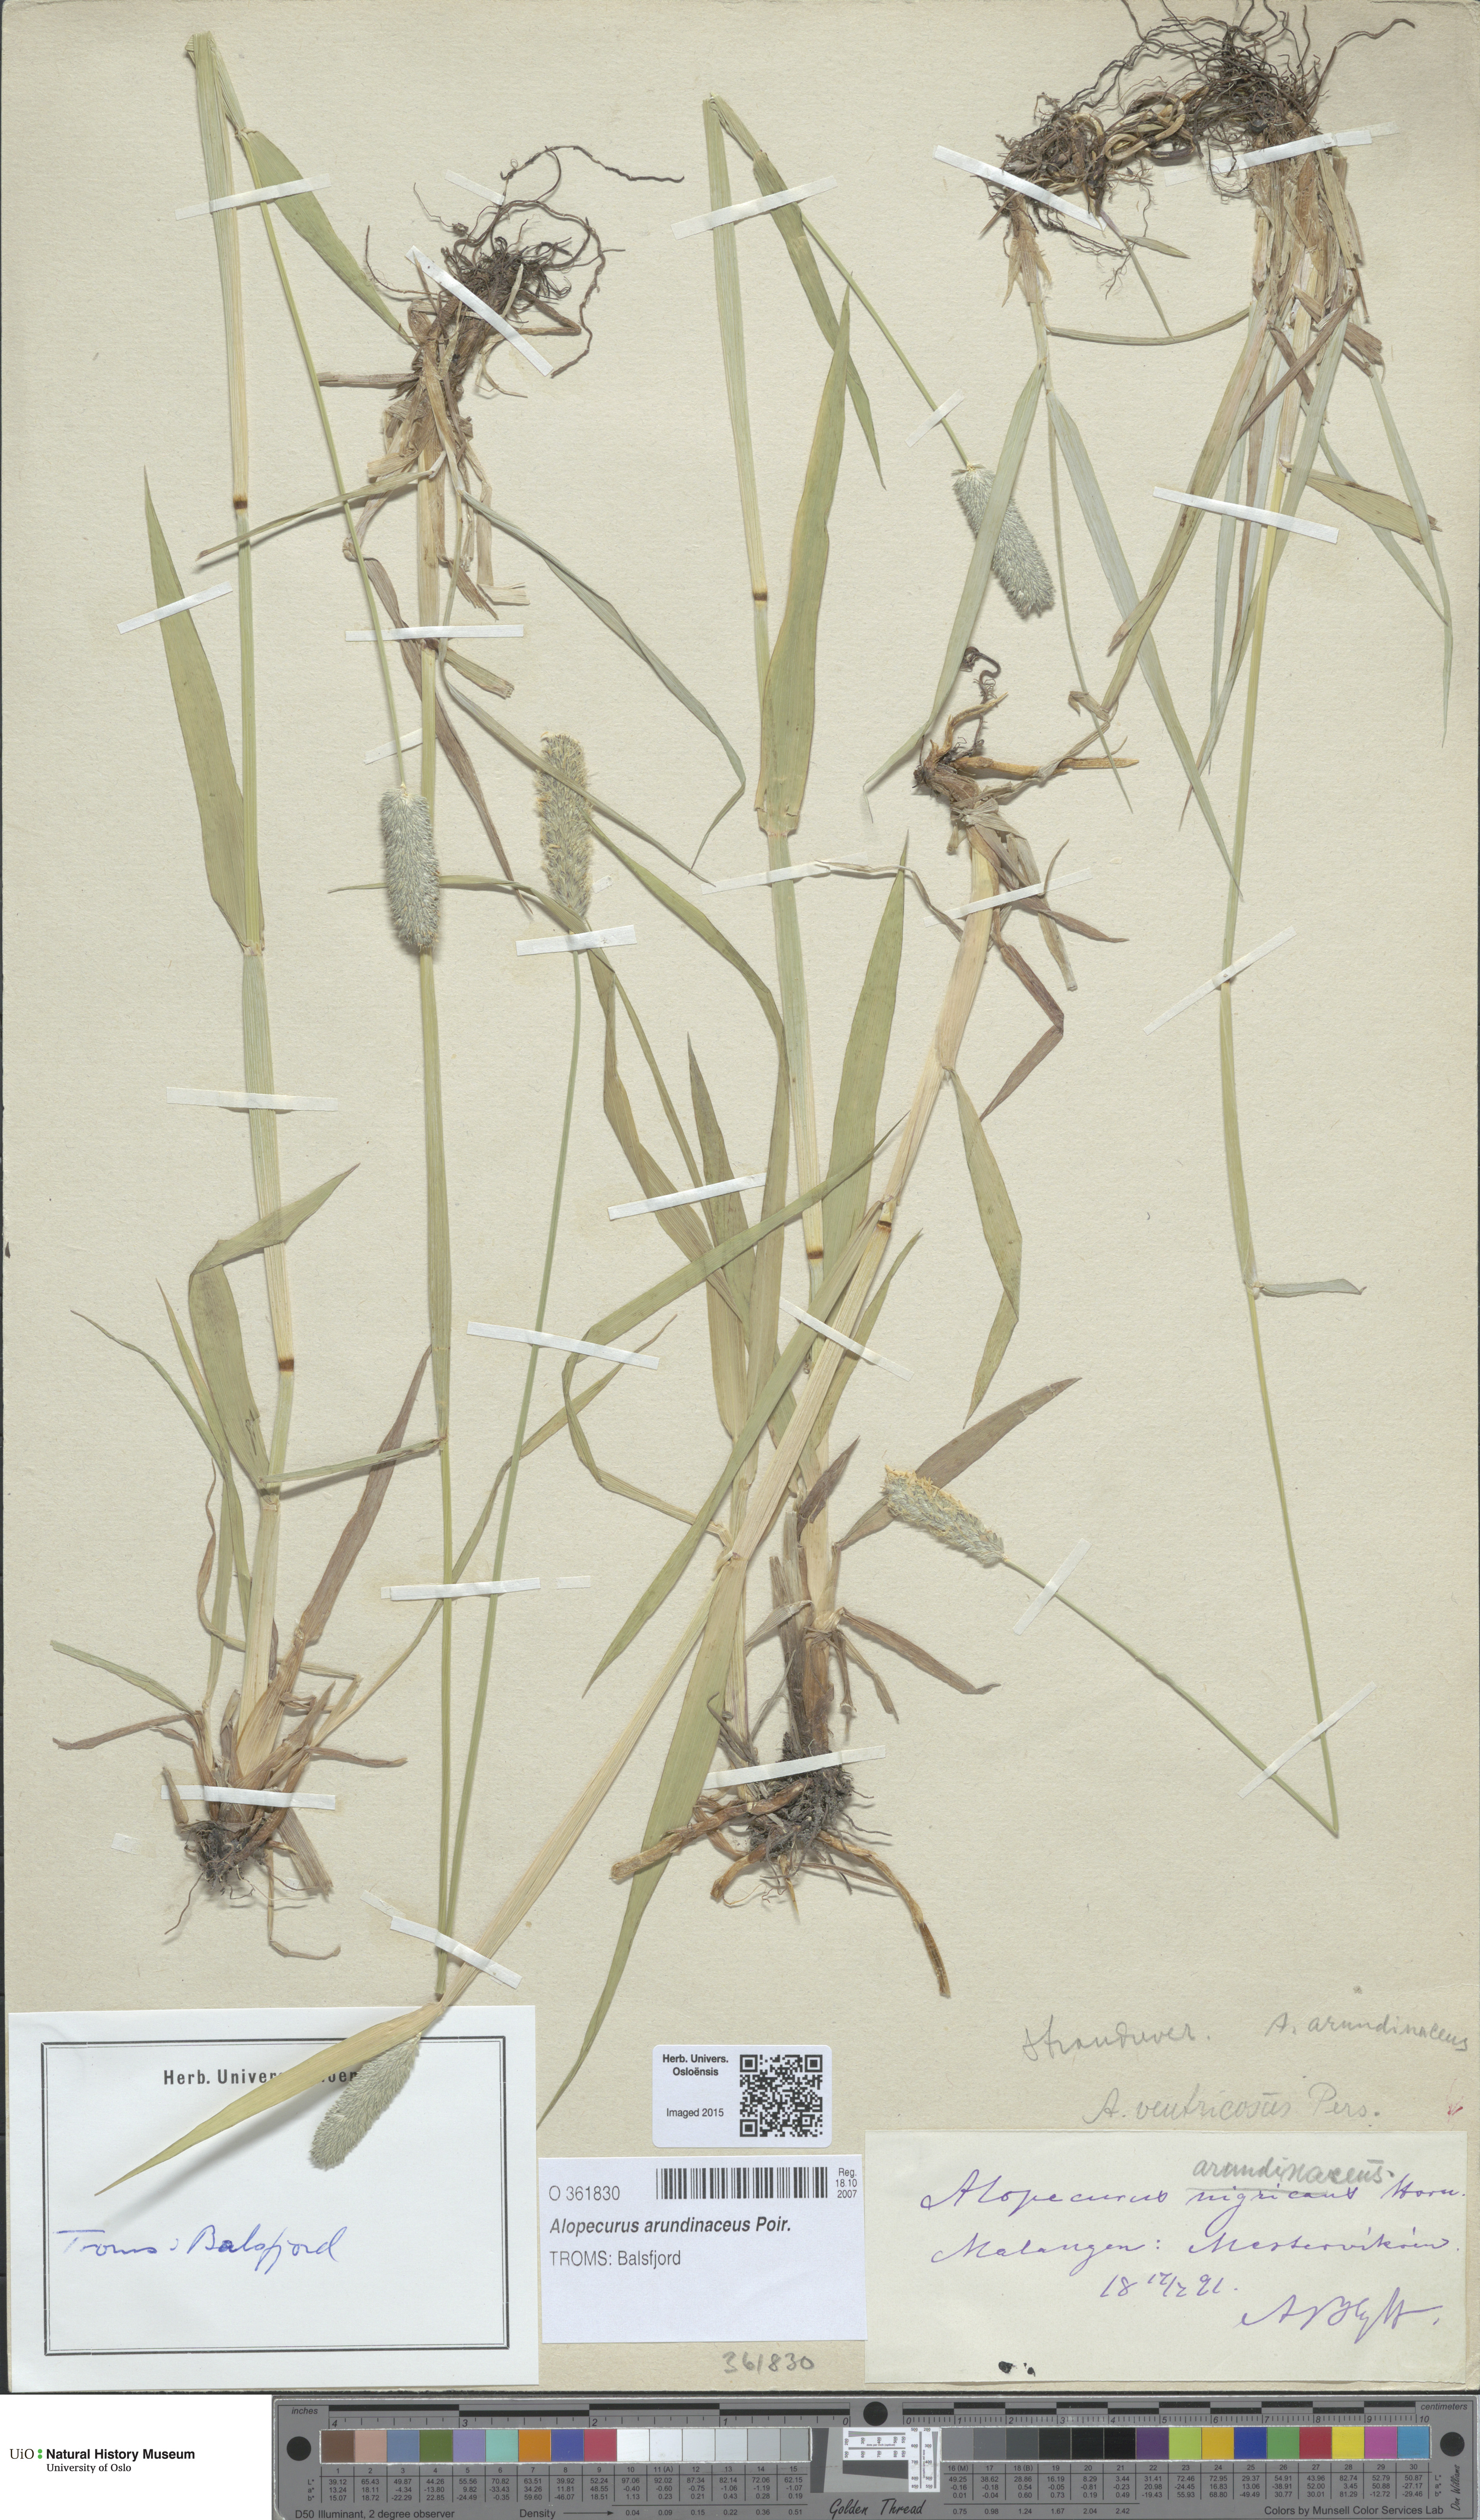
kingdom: Plantae
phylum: Tracheophyta
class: Liliopsida
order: Poales
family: Poaceae
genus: Alopecurus
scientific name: Alopecurus arundinaceus
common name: Creeping meadow foxtail
